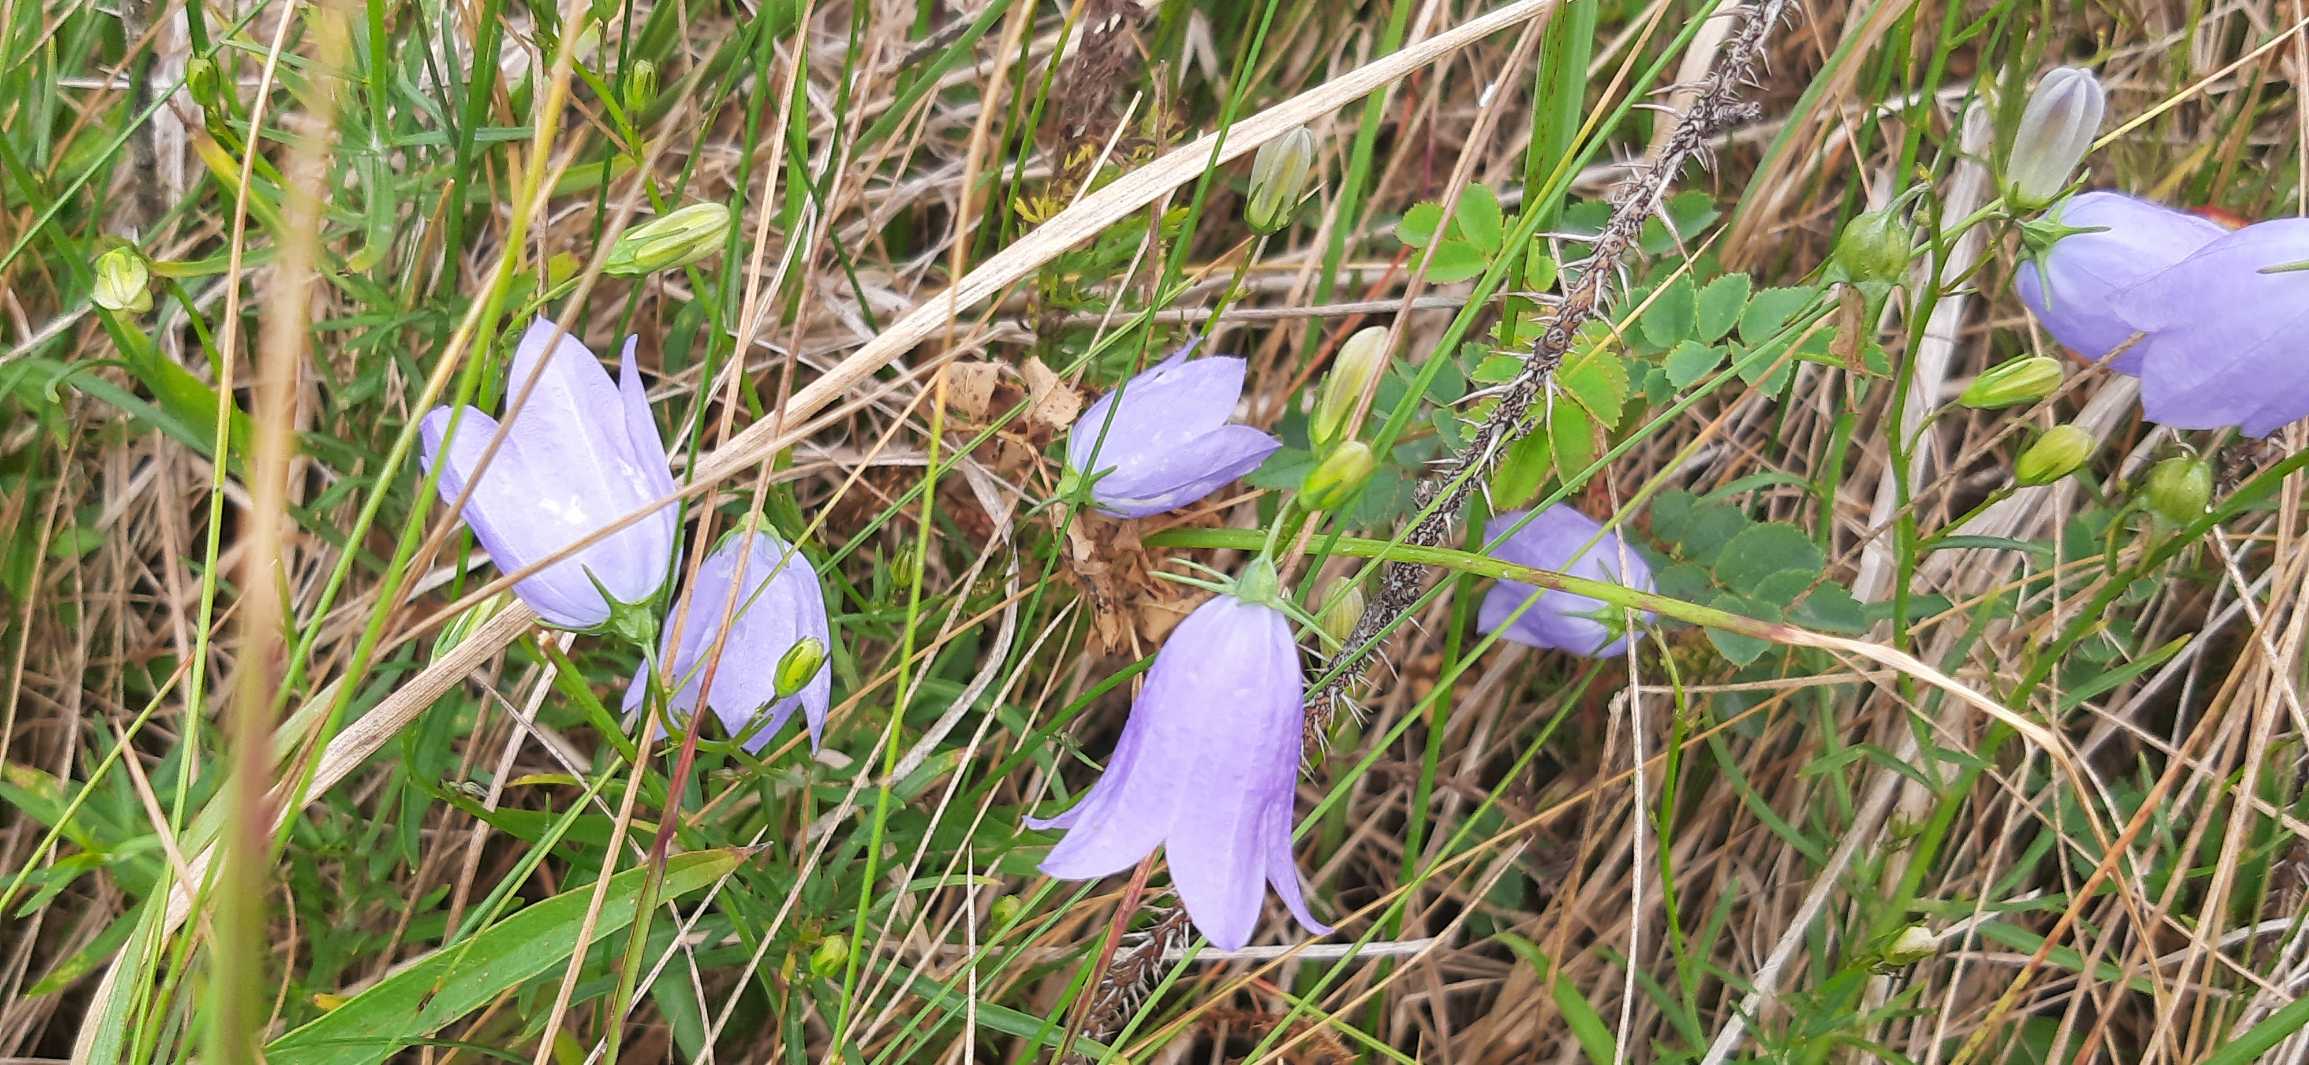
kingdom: Plantae
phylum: Tracheophyta
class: Magnoliopsida
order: Asterales
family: Campanulaceae
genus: Campanula
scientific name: Campanula rotundifolia
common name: Liden klokke
